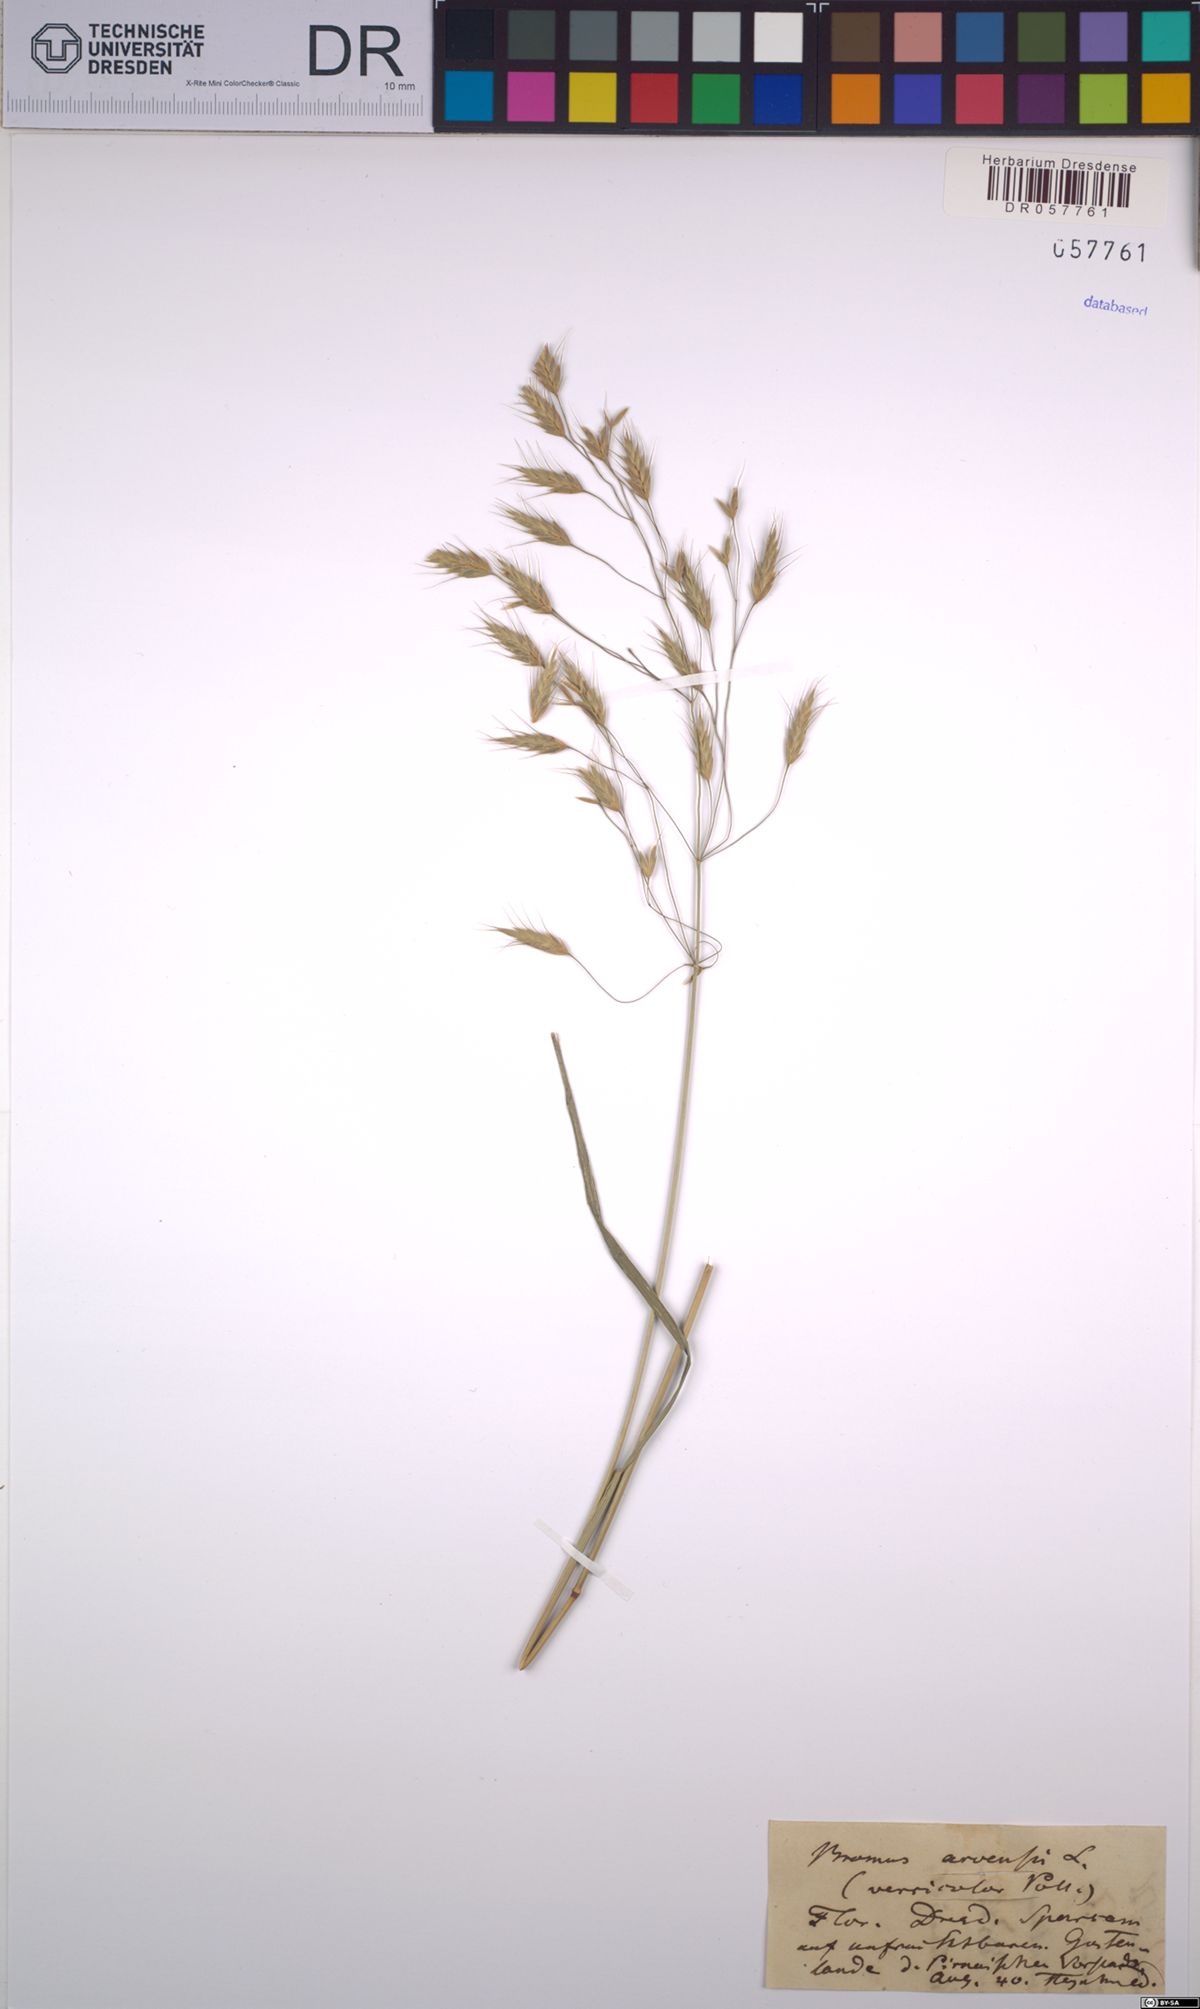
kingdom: Plantae
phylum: Tracheophyta
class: Liliopsida
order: Poales
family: Poaceae
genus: Bromus
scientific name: Bromus arvensis
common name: Field brome
